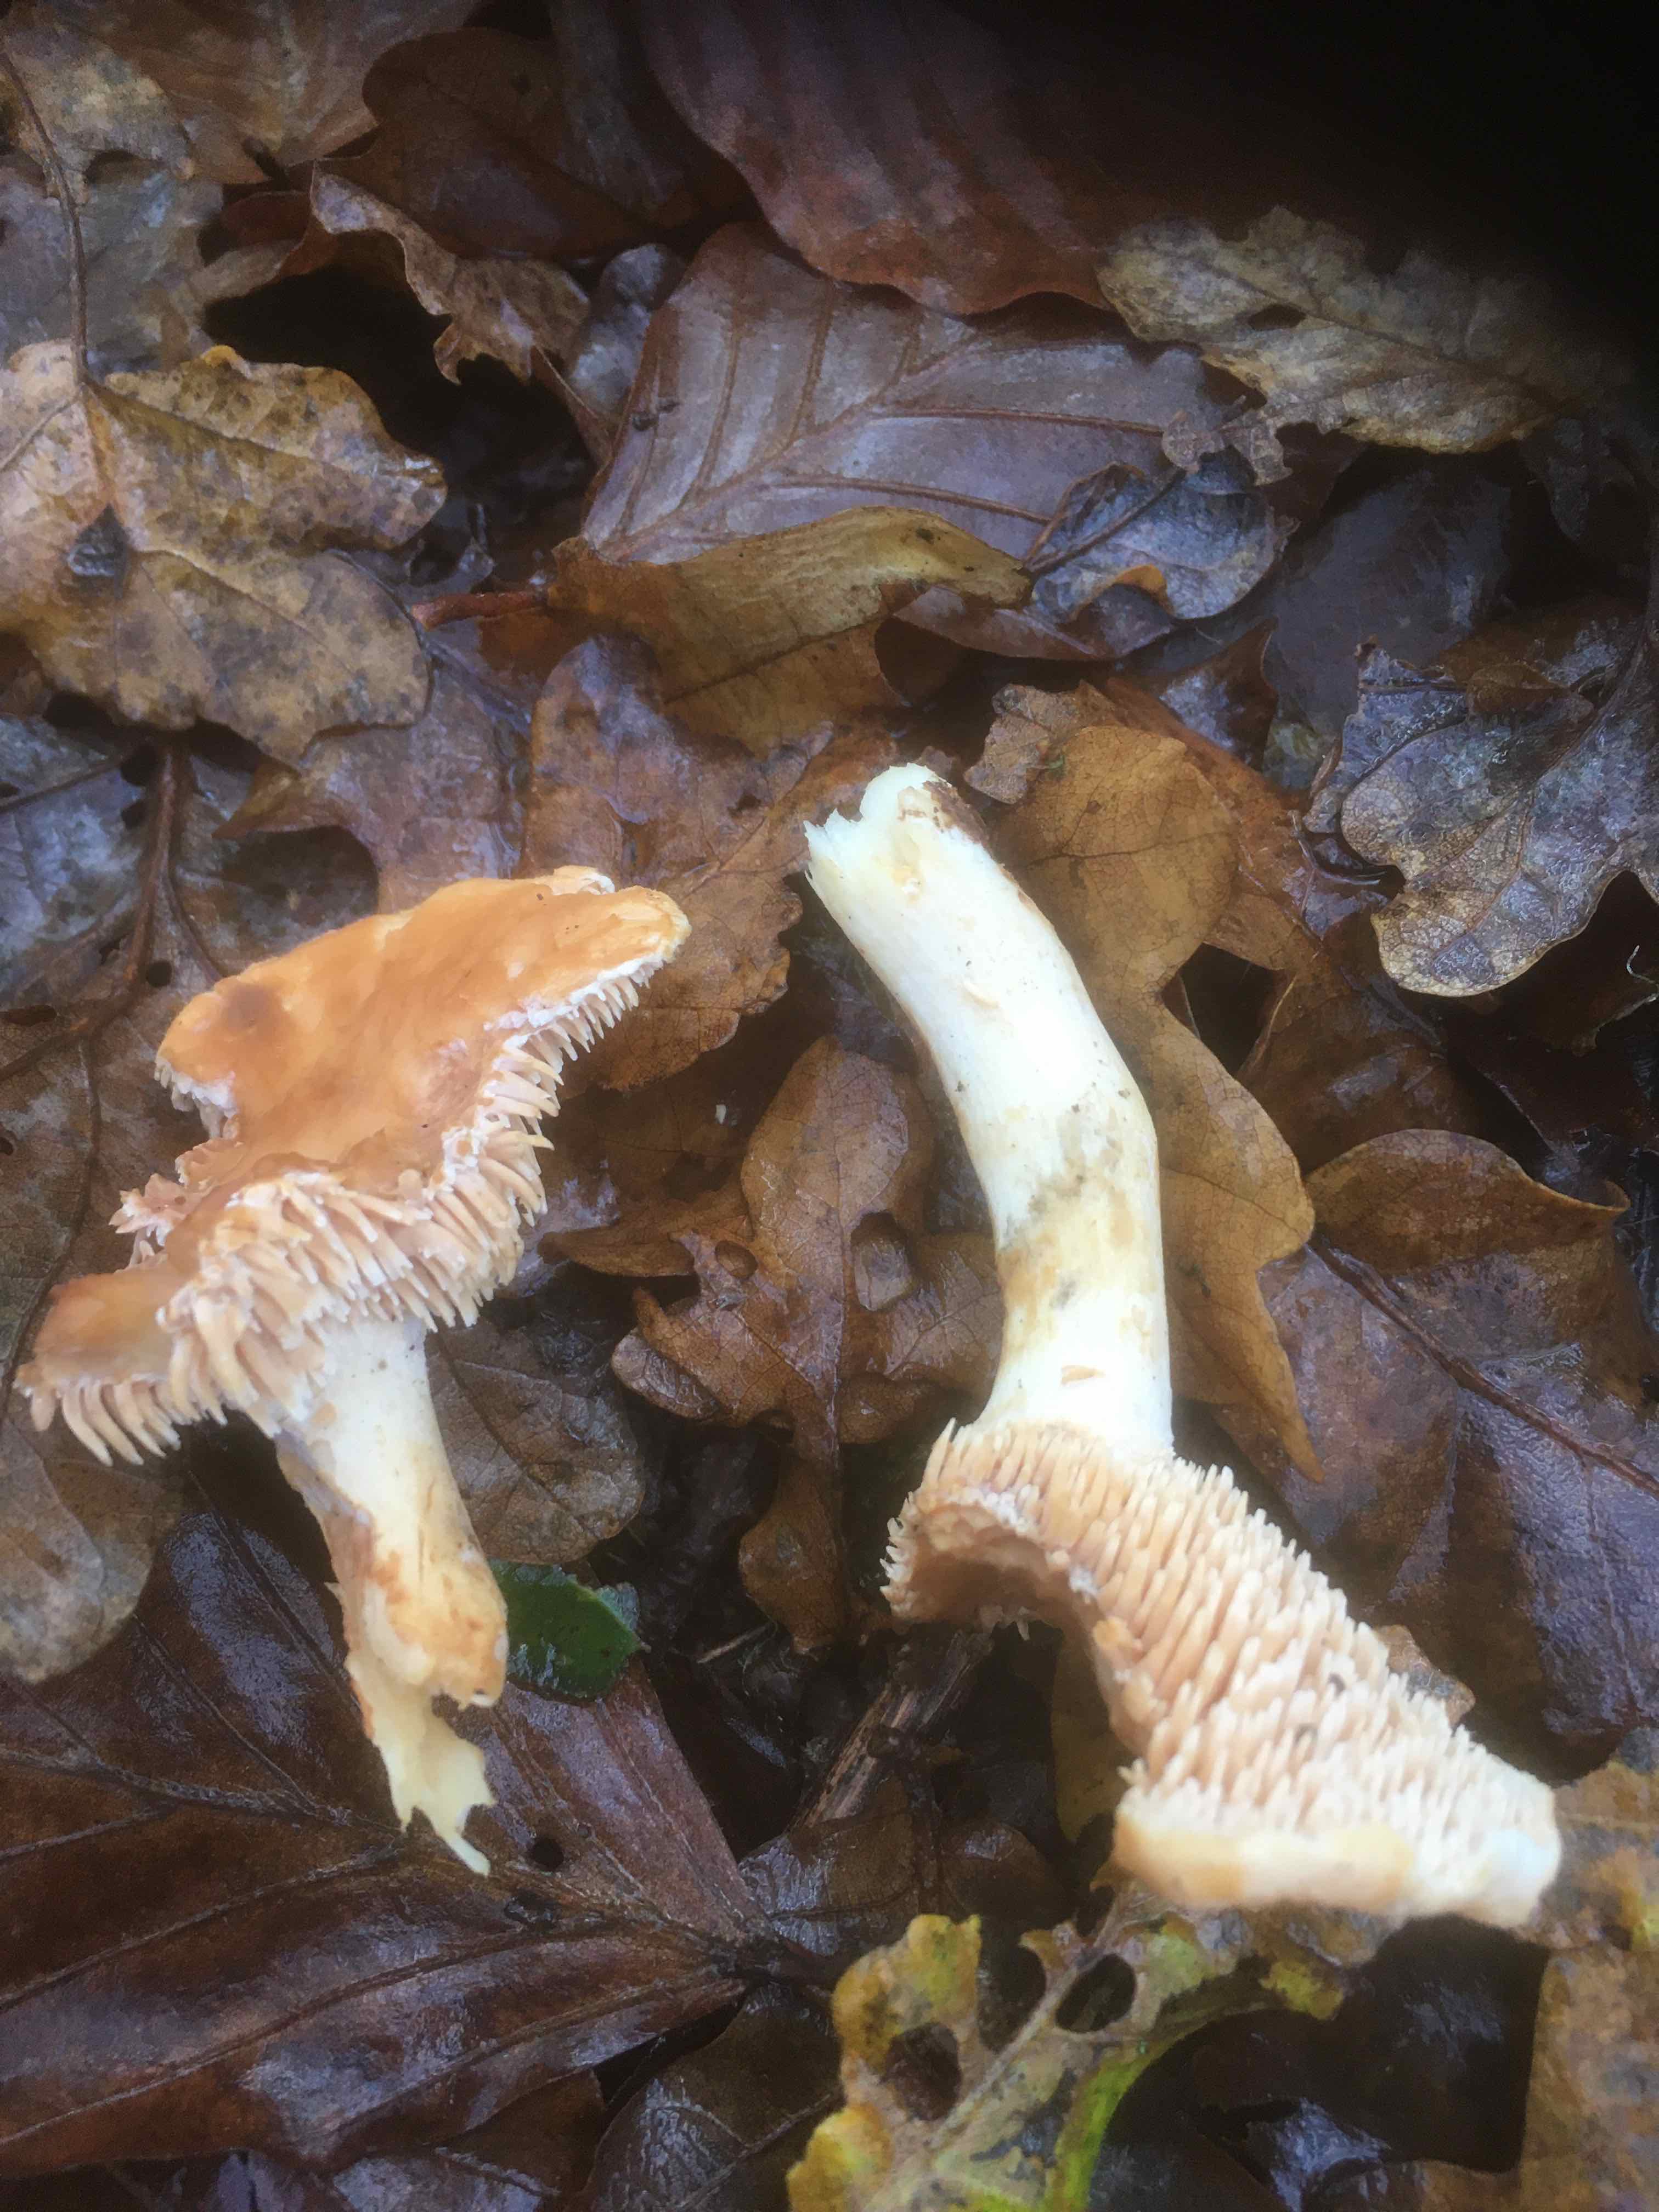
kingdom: Fungi
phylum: Basidiomycota
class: Agaricomycetes
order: Cantharellales
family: Hydnaceae
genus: Hydnum
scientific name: Hydnum
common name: pigsvamp
